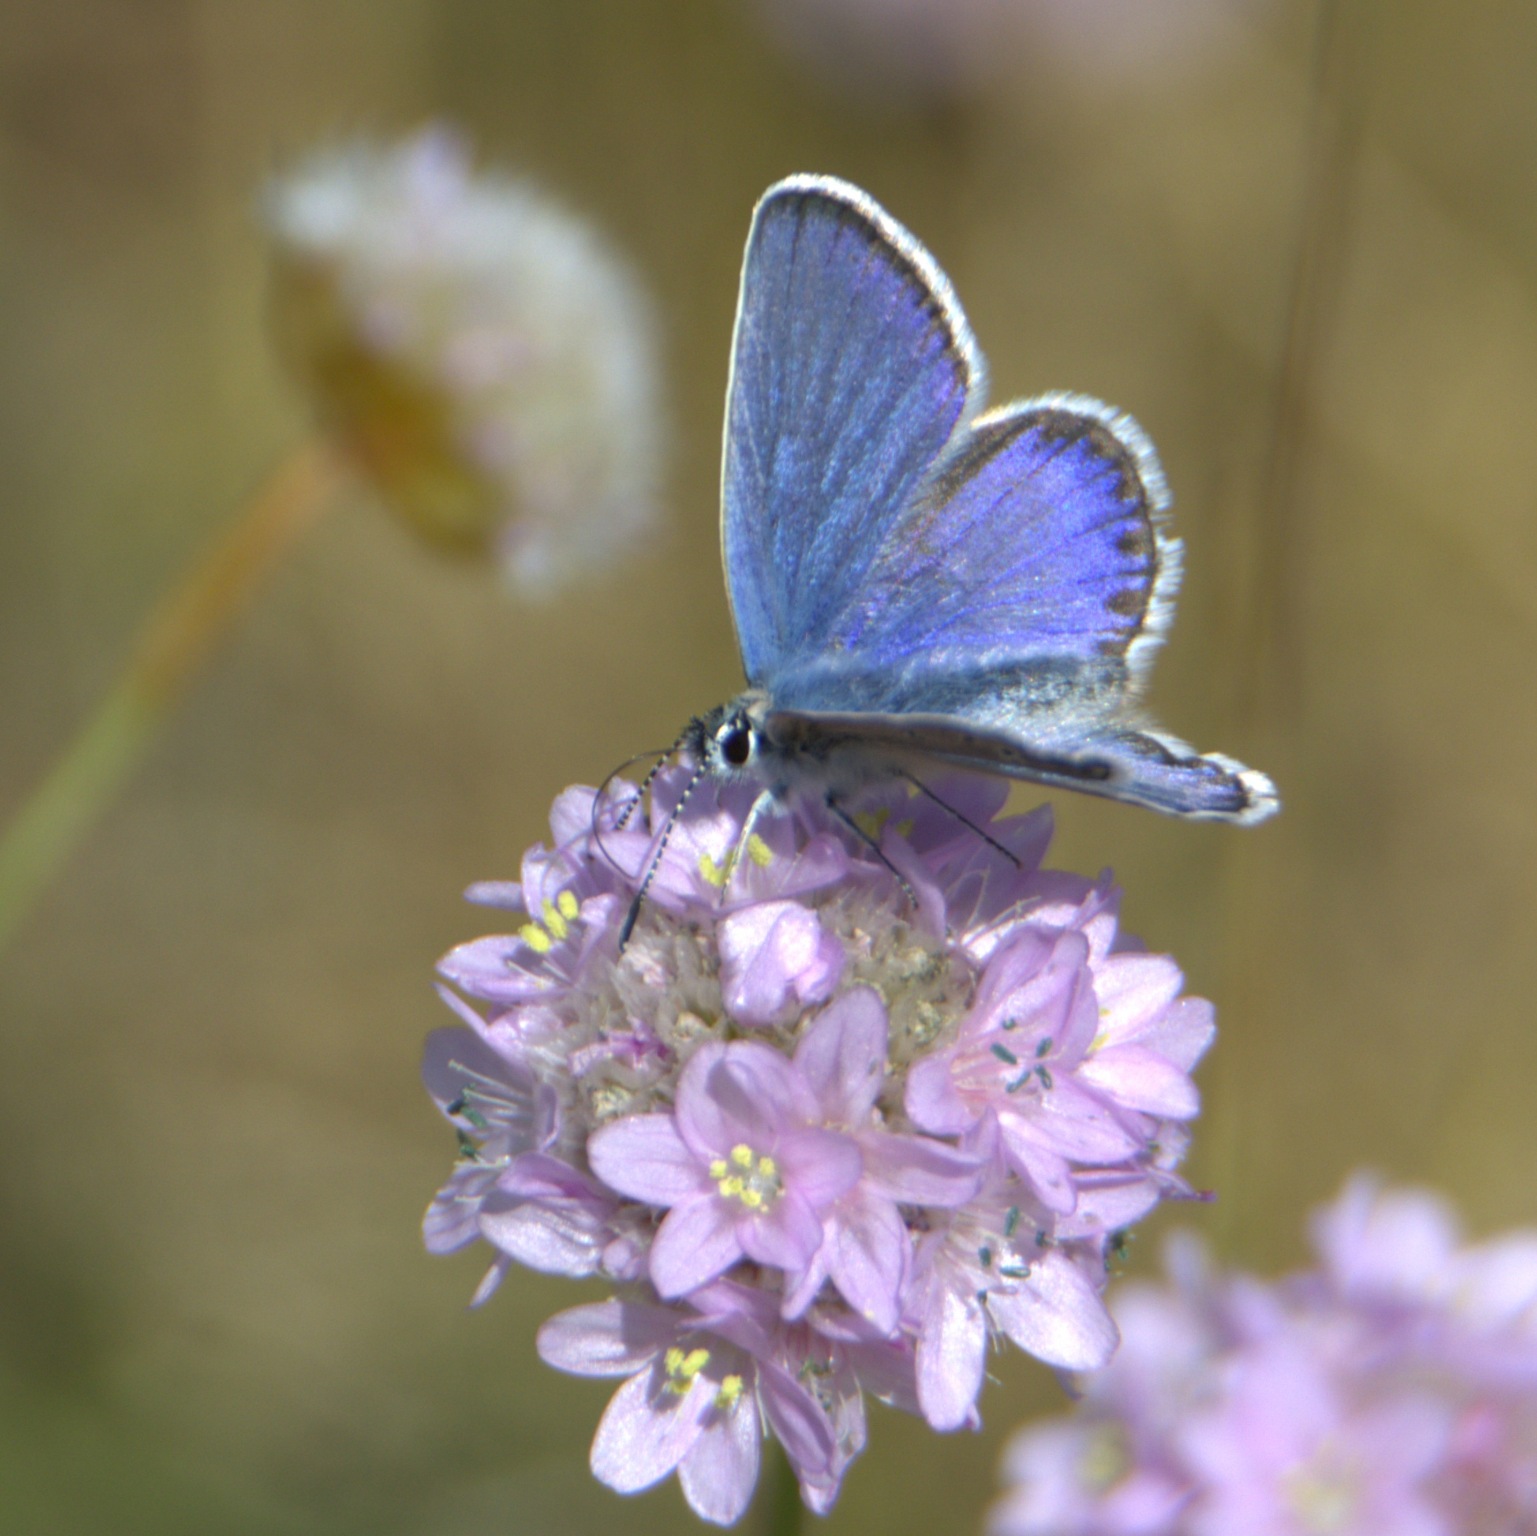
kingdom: Animalia
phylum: Arthropoda
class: Insecta
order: Lepidoptera
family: Lycaenidae
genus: Lycaeides
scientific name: Lycaeides idas
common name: Foranderlig blåfugl
